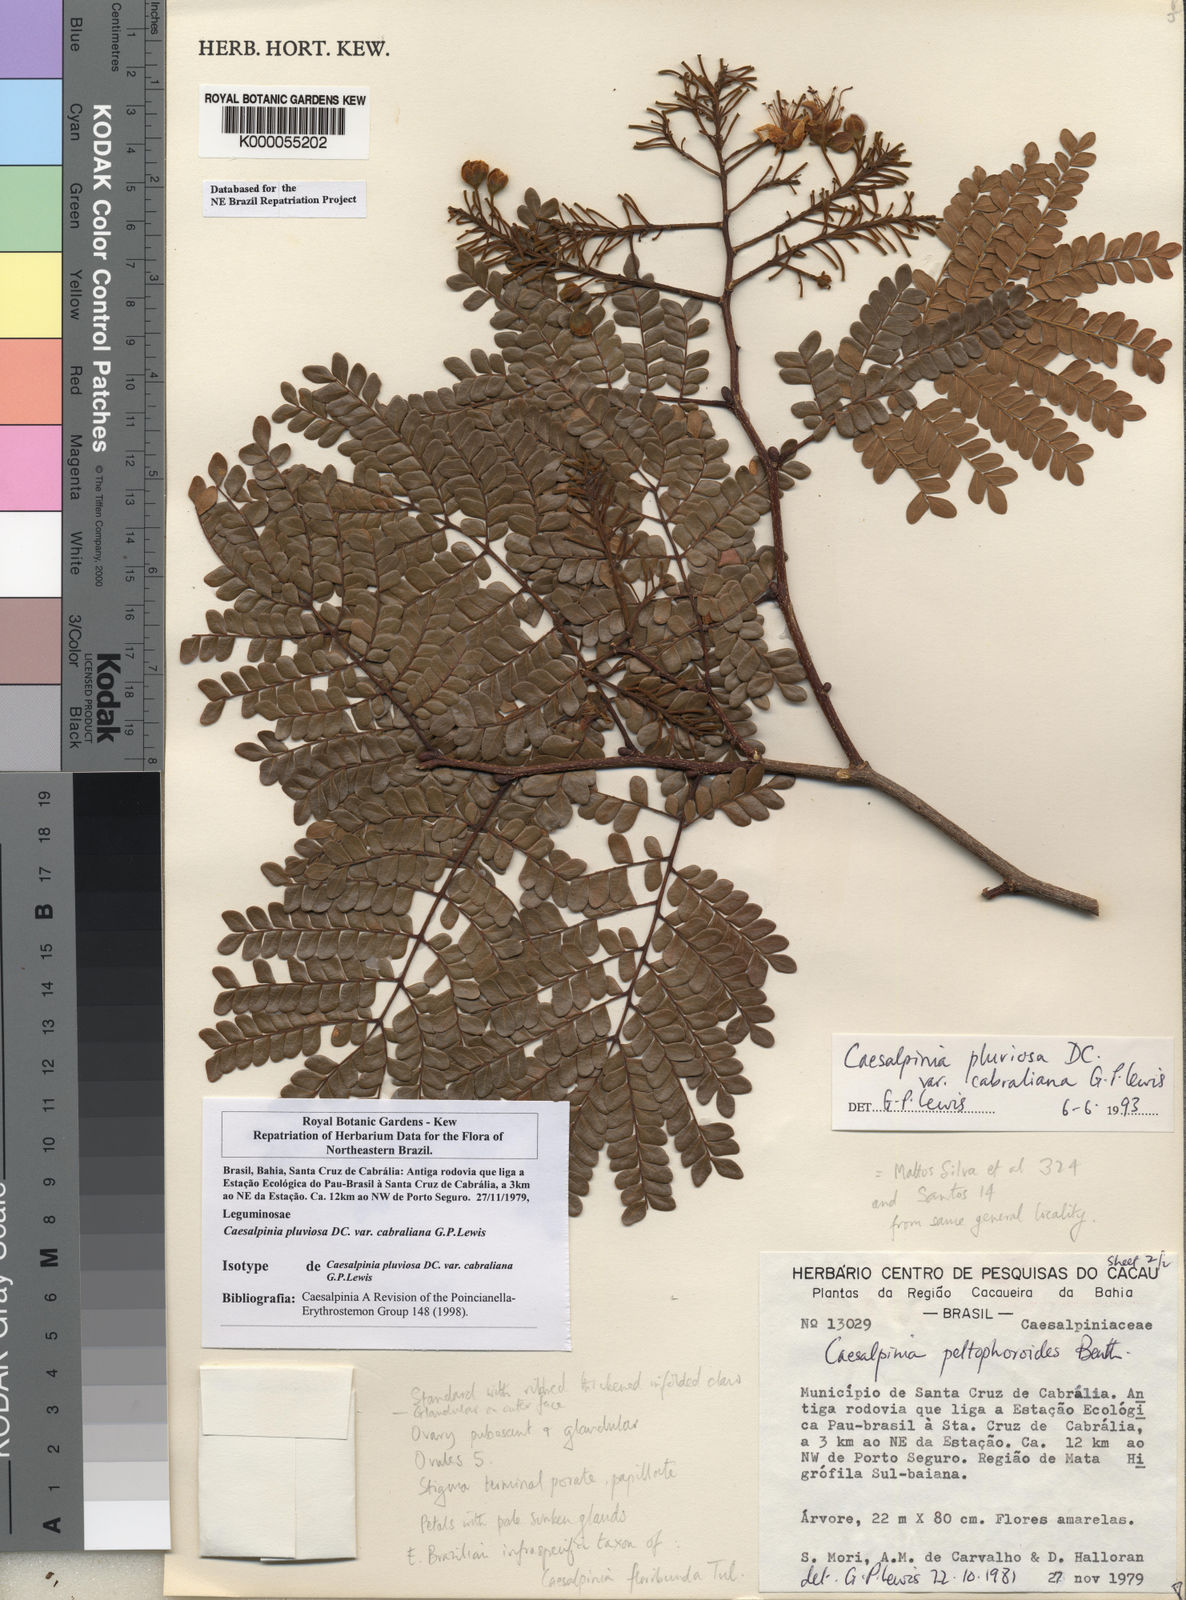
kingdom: Plantae
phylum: Tracheophyta
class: Magnoliopsida
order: Fabales
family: Fabaceae
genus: Cenostigma
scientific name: Cenostigma pluviosum
